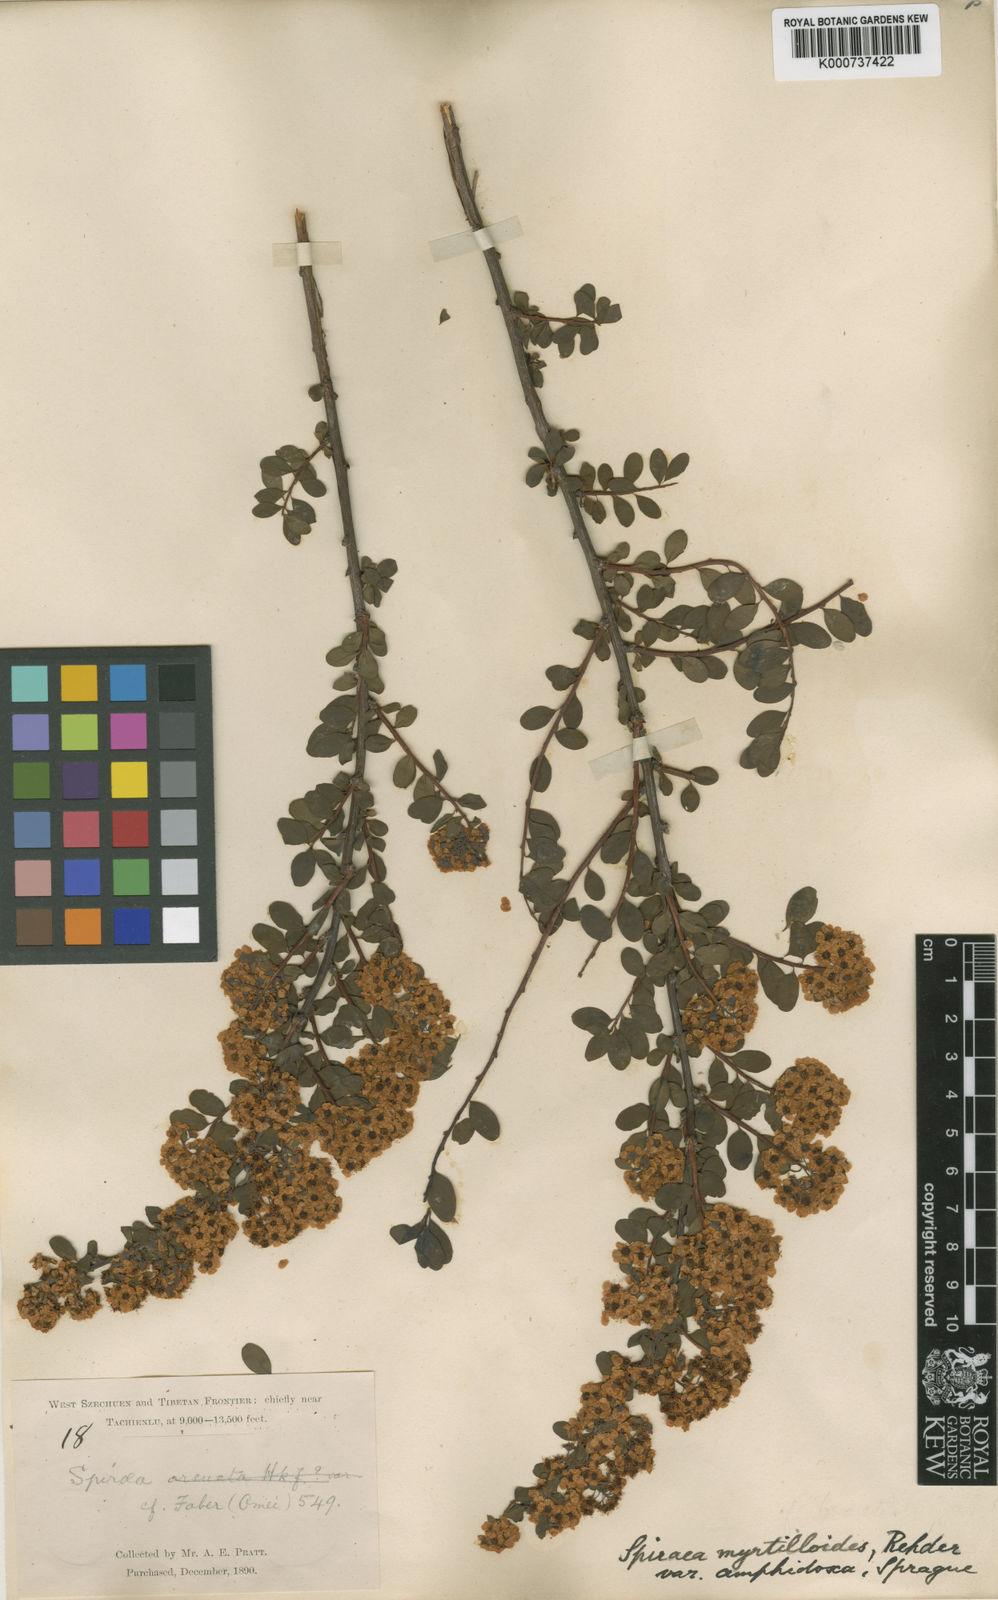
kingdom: Plantae
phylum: Tracheophyta
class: Magnoliopsida
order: Rosales
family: Rosaceae
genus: Spiraea
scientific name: Spiraea myrtilloides
